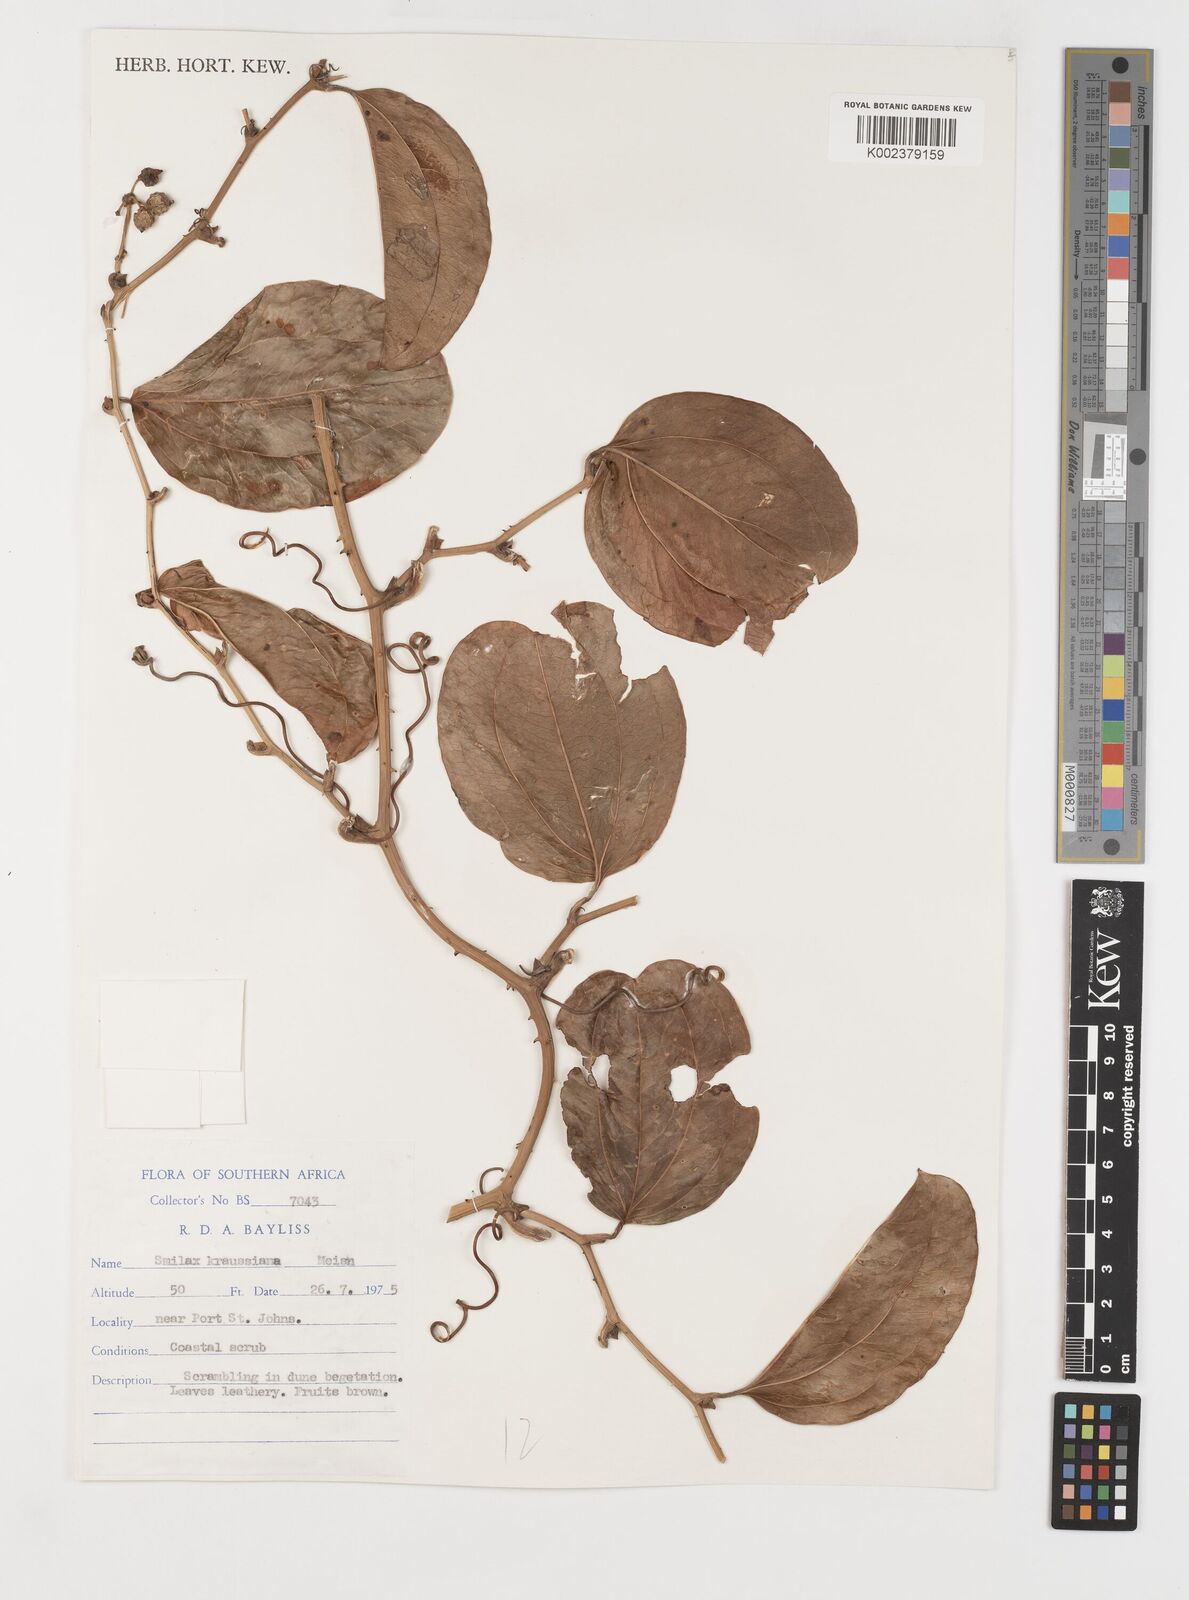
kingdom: Plantae
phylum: Tracheophyta
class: Liliopsida
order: Liliales
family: Smilacaceae
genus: Smilax
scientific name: Smilax anceps
